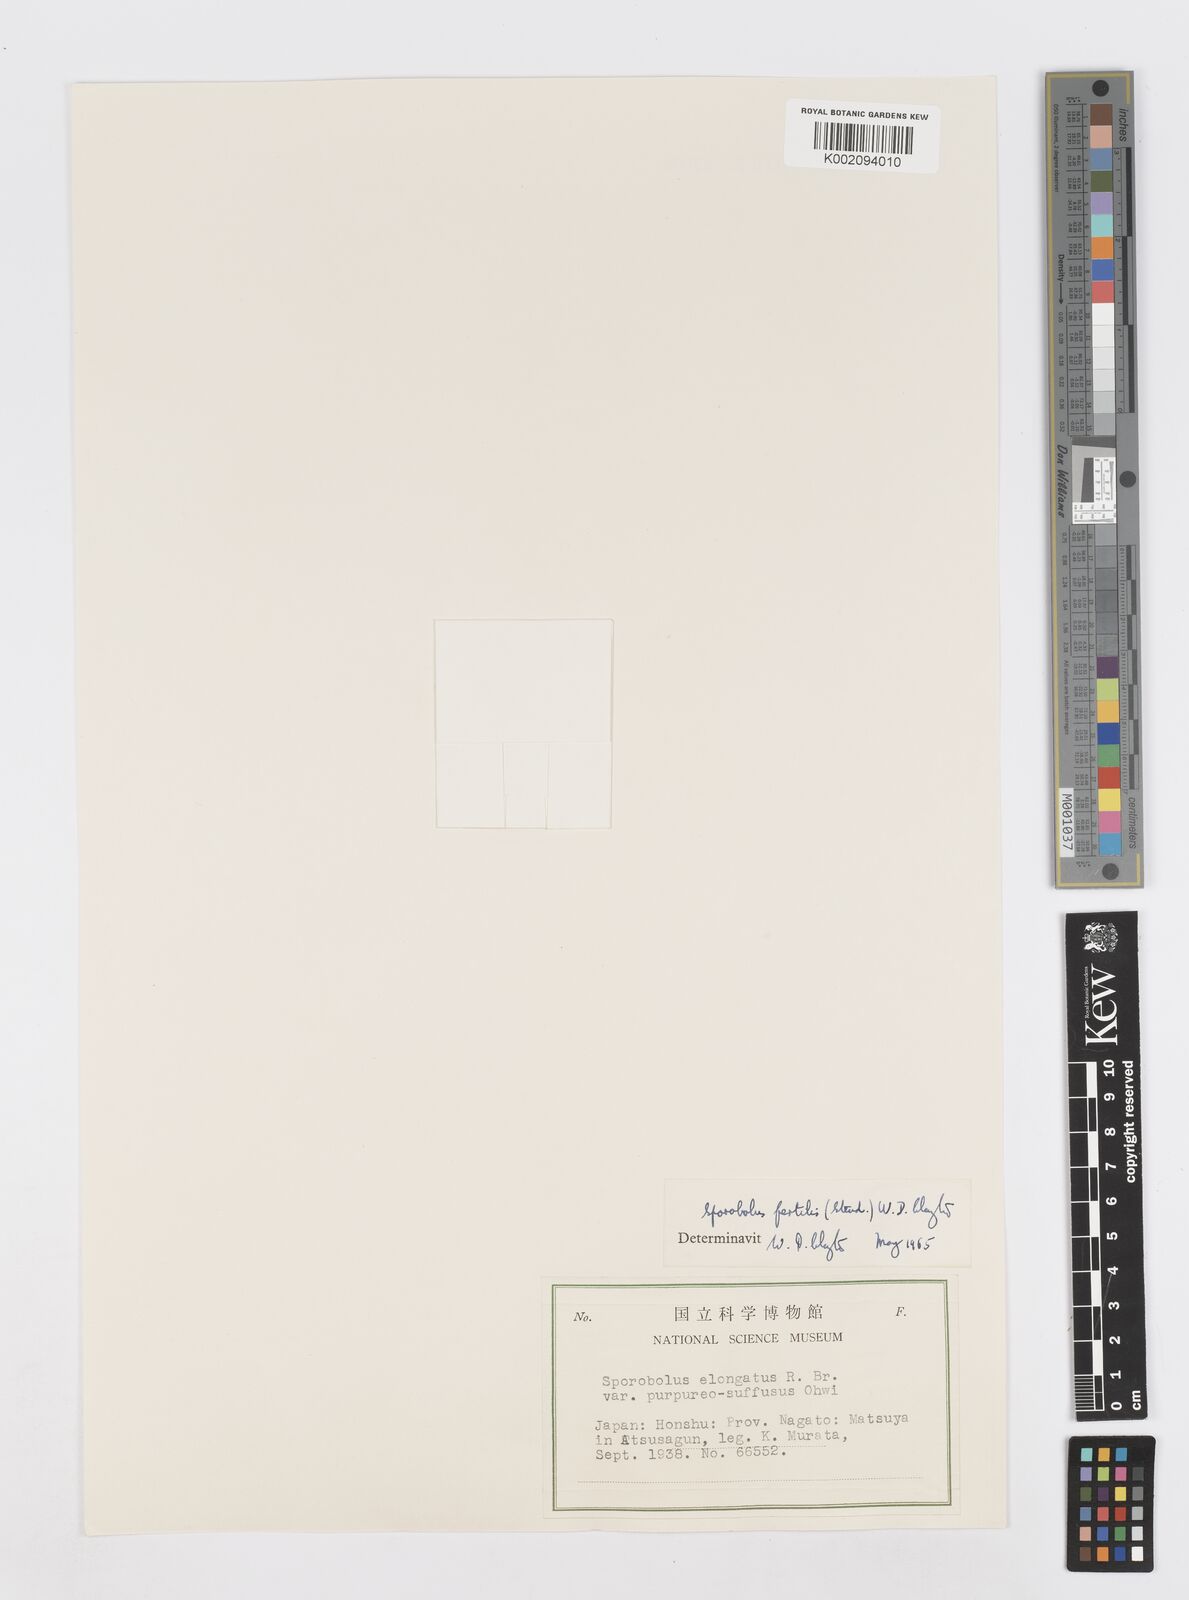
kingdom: Plantae
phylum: Tracheophyta
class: Liliopsida
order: Poales
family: Poaceae
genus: Sporobolus
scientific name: Sporobolus fertilis
